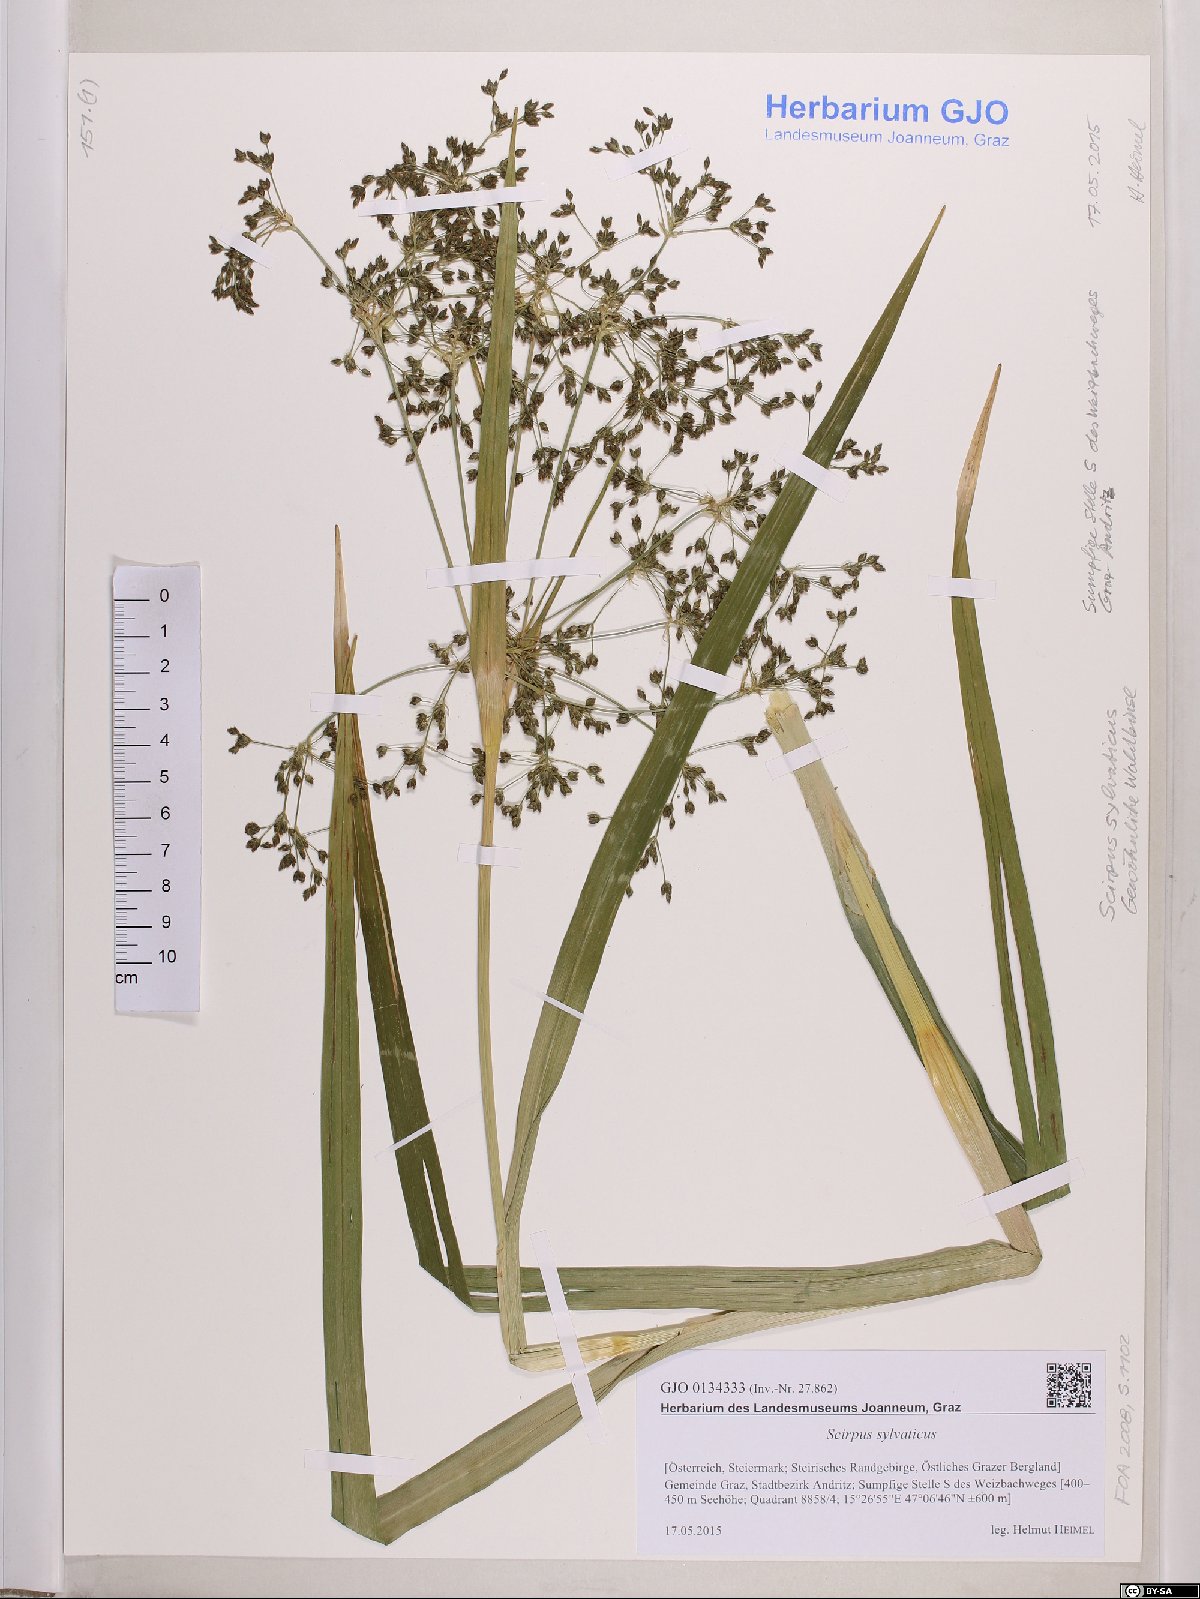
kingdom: Plantae
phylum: Tracheophyta
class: Liliopsida
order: Poales
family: Cyperaceae
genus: Scirpus
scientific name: Scirpus sylvaticus
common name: Wood club-rush
